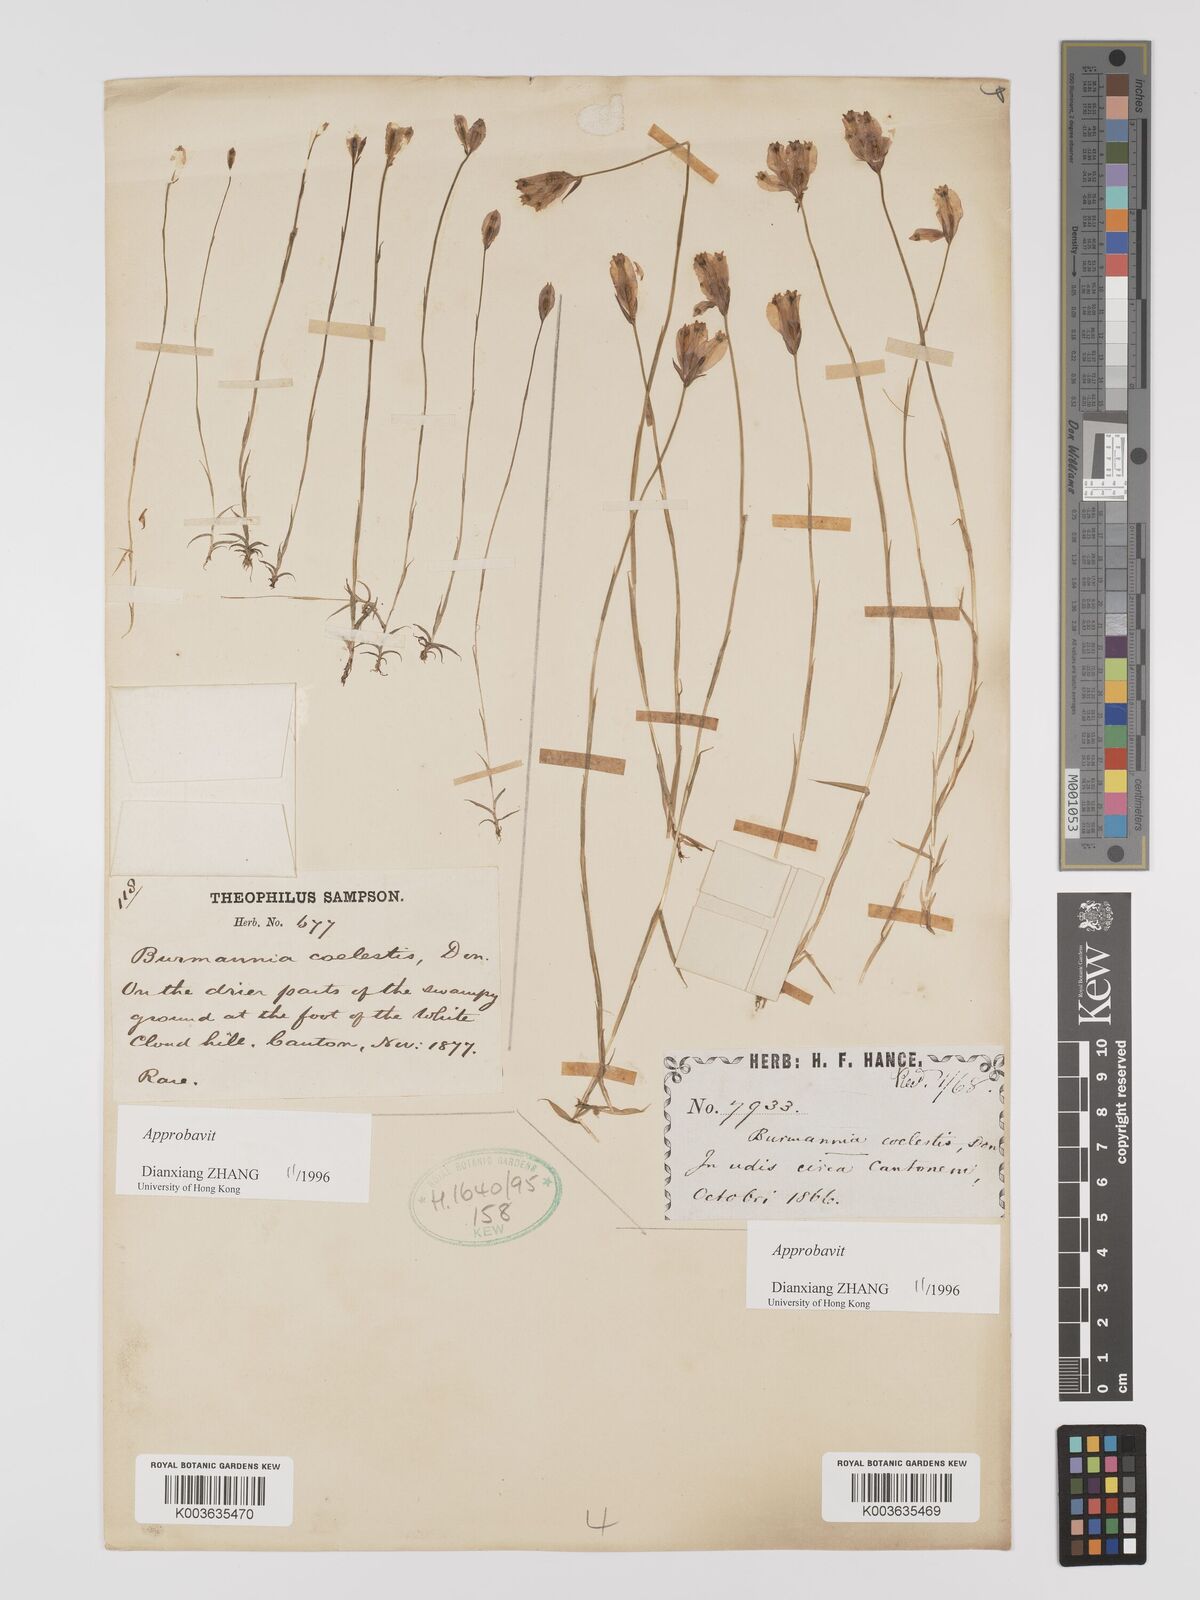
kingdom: Plantae
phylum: Tracheophyta
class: Liliopsida
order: Dioscoreales
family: Burmanniaceae
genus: Burmannia
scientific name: Burmannia coelestis
